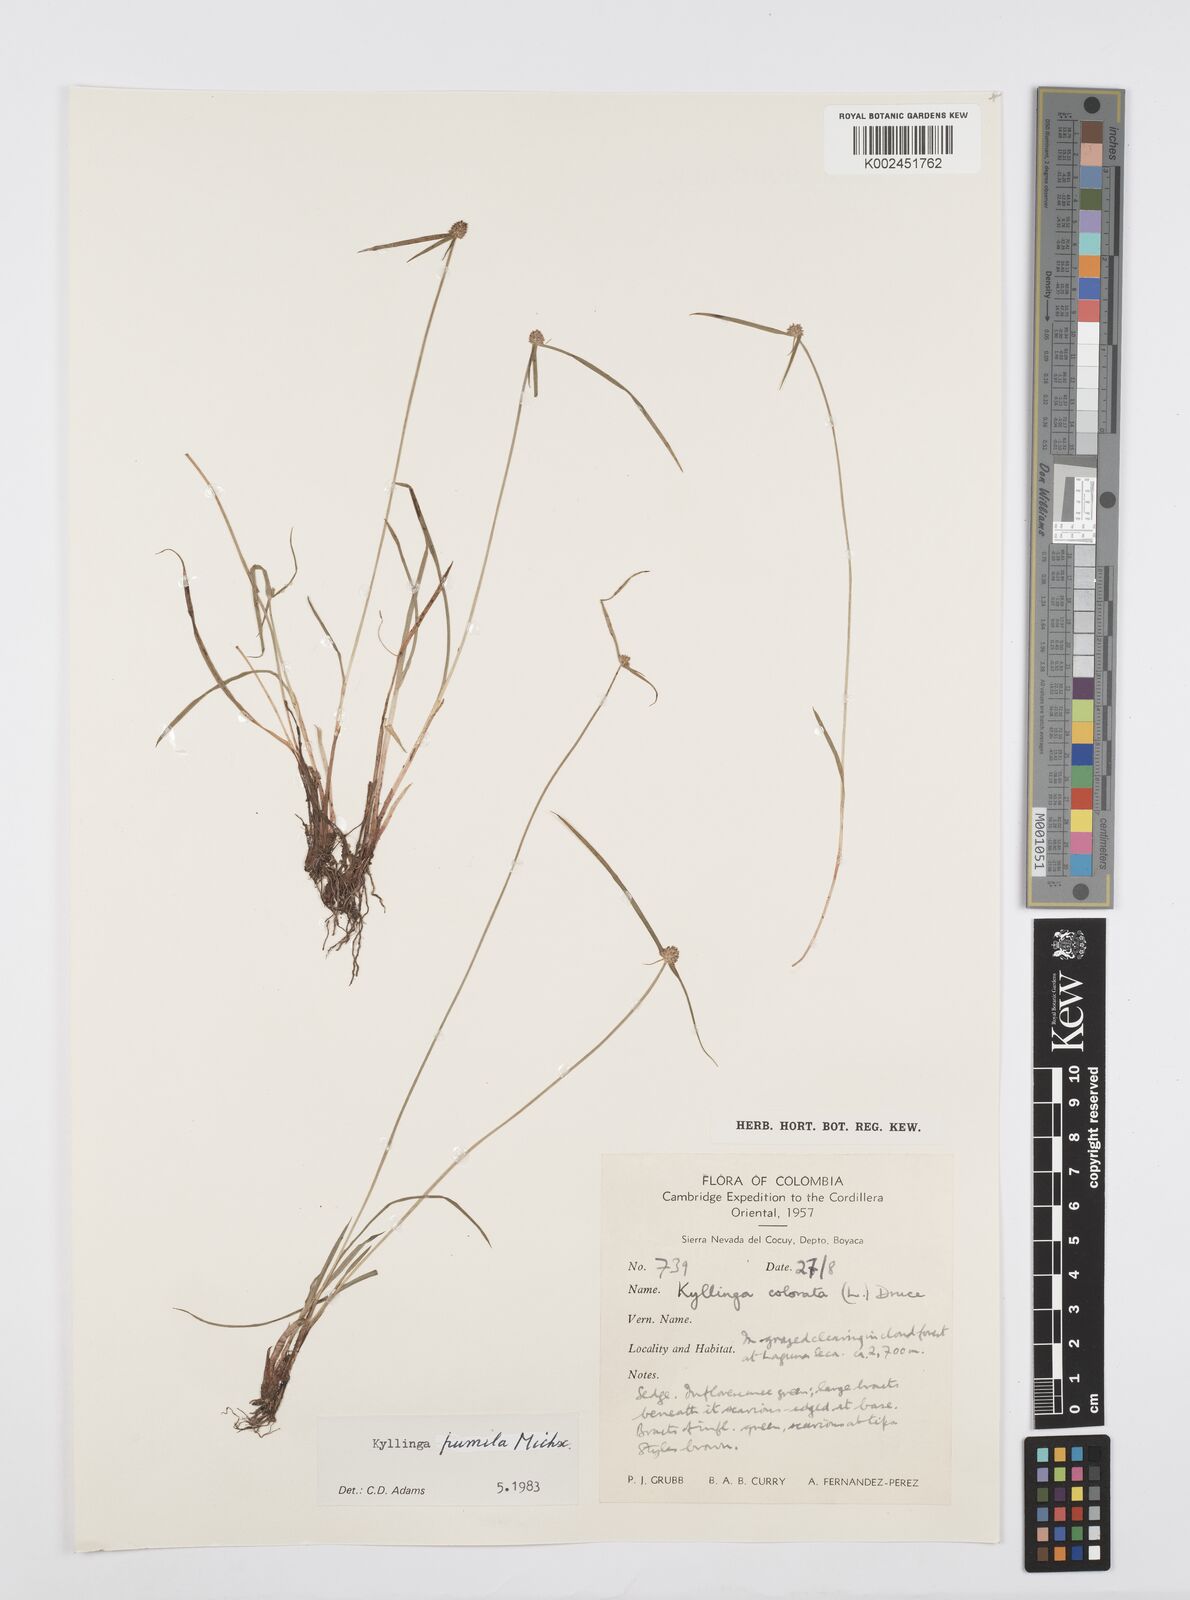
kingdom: Plantae
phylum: Tracheophyta
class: Liliopsida
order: Poales
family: Cyperaceae
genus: Cyperus
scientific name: Cyperus
